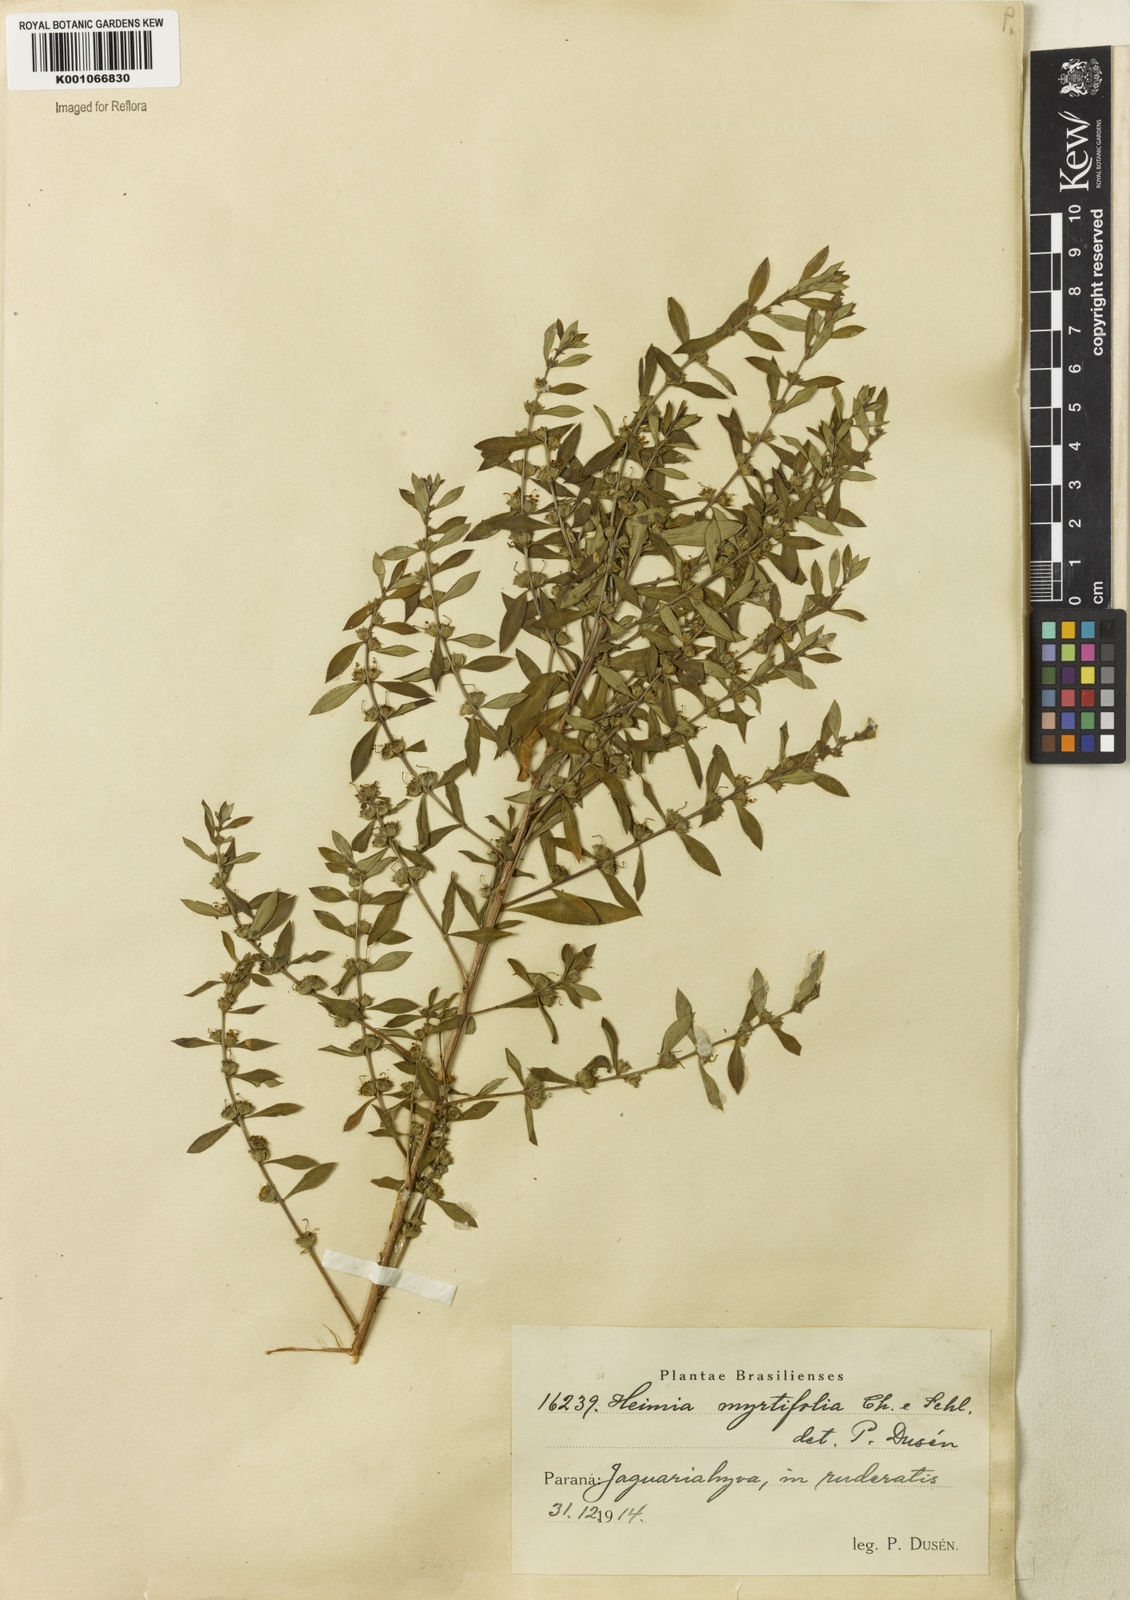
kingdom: Plantae
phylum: Tracheophyta
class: Magnoliopsida
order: Myrtales
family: Lythraceae
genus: Heimia
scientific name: Heimia apetala
